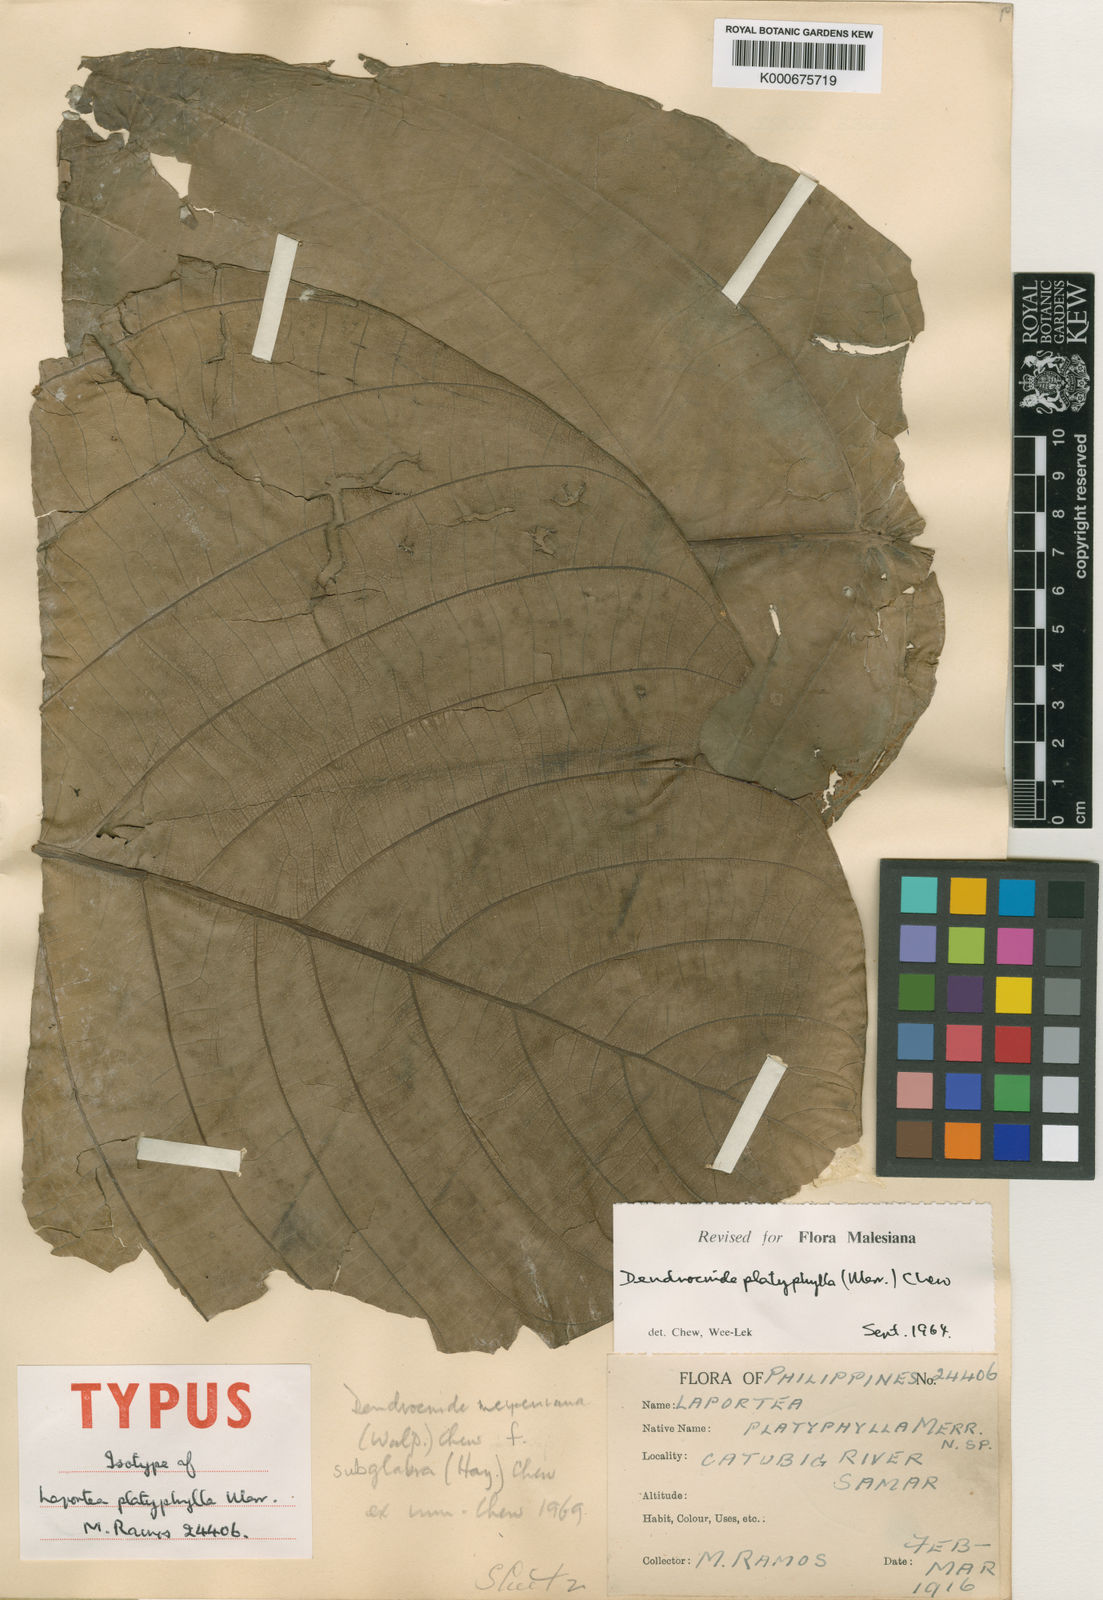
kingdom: Plantae
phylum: Tracheophyta
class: Magnoliopsida
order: Rosales
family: Urticaceae
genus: Dendrocnide
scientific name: Dendrocnide meyeniana
